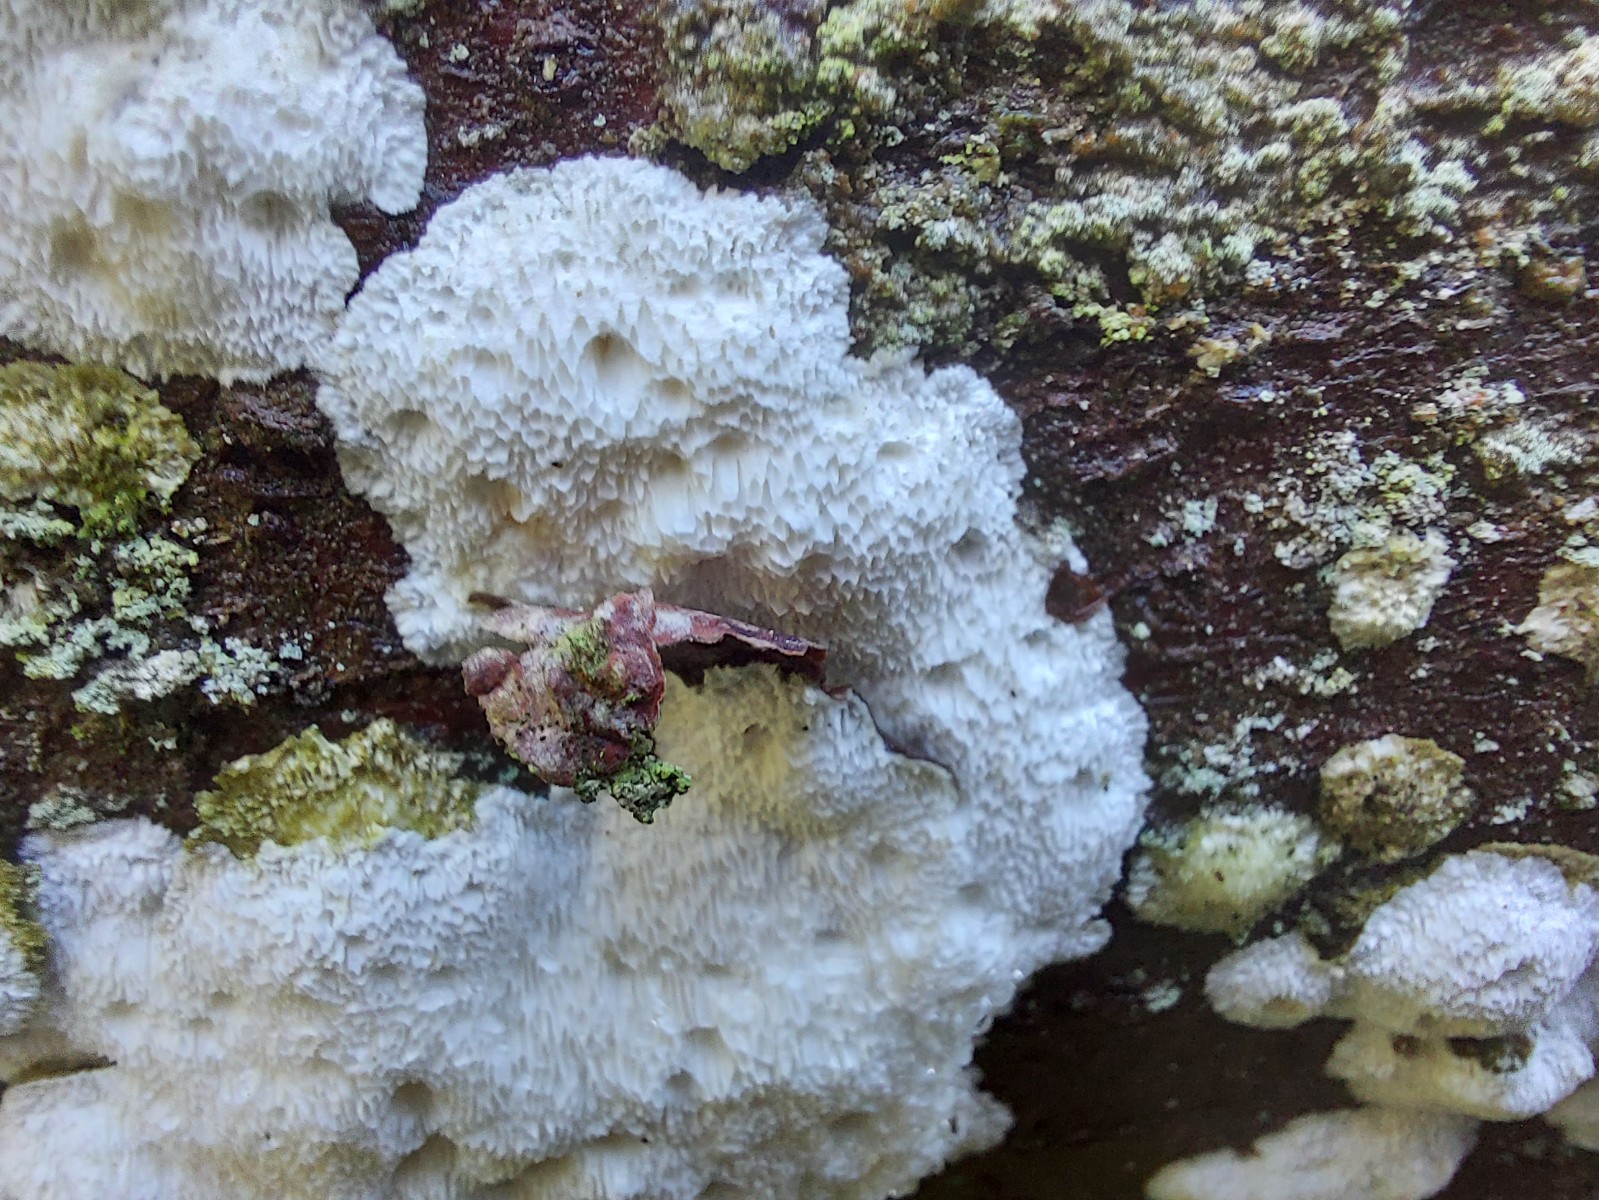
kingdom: Fungi
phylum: Basidiomycota
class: Agaricomycetes
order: Polyporales
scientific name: Polyporales
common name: poresvampordenen
